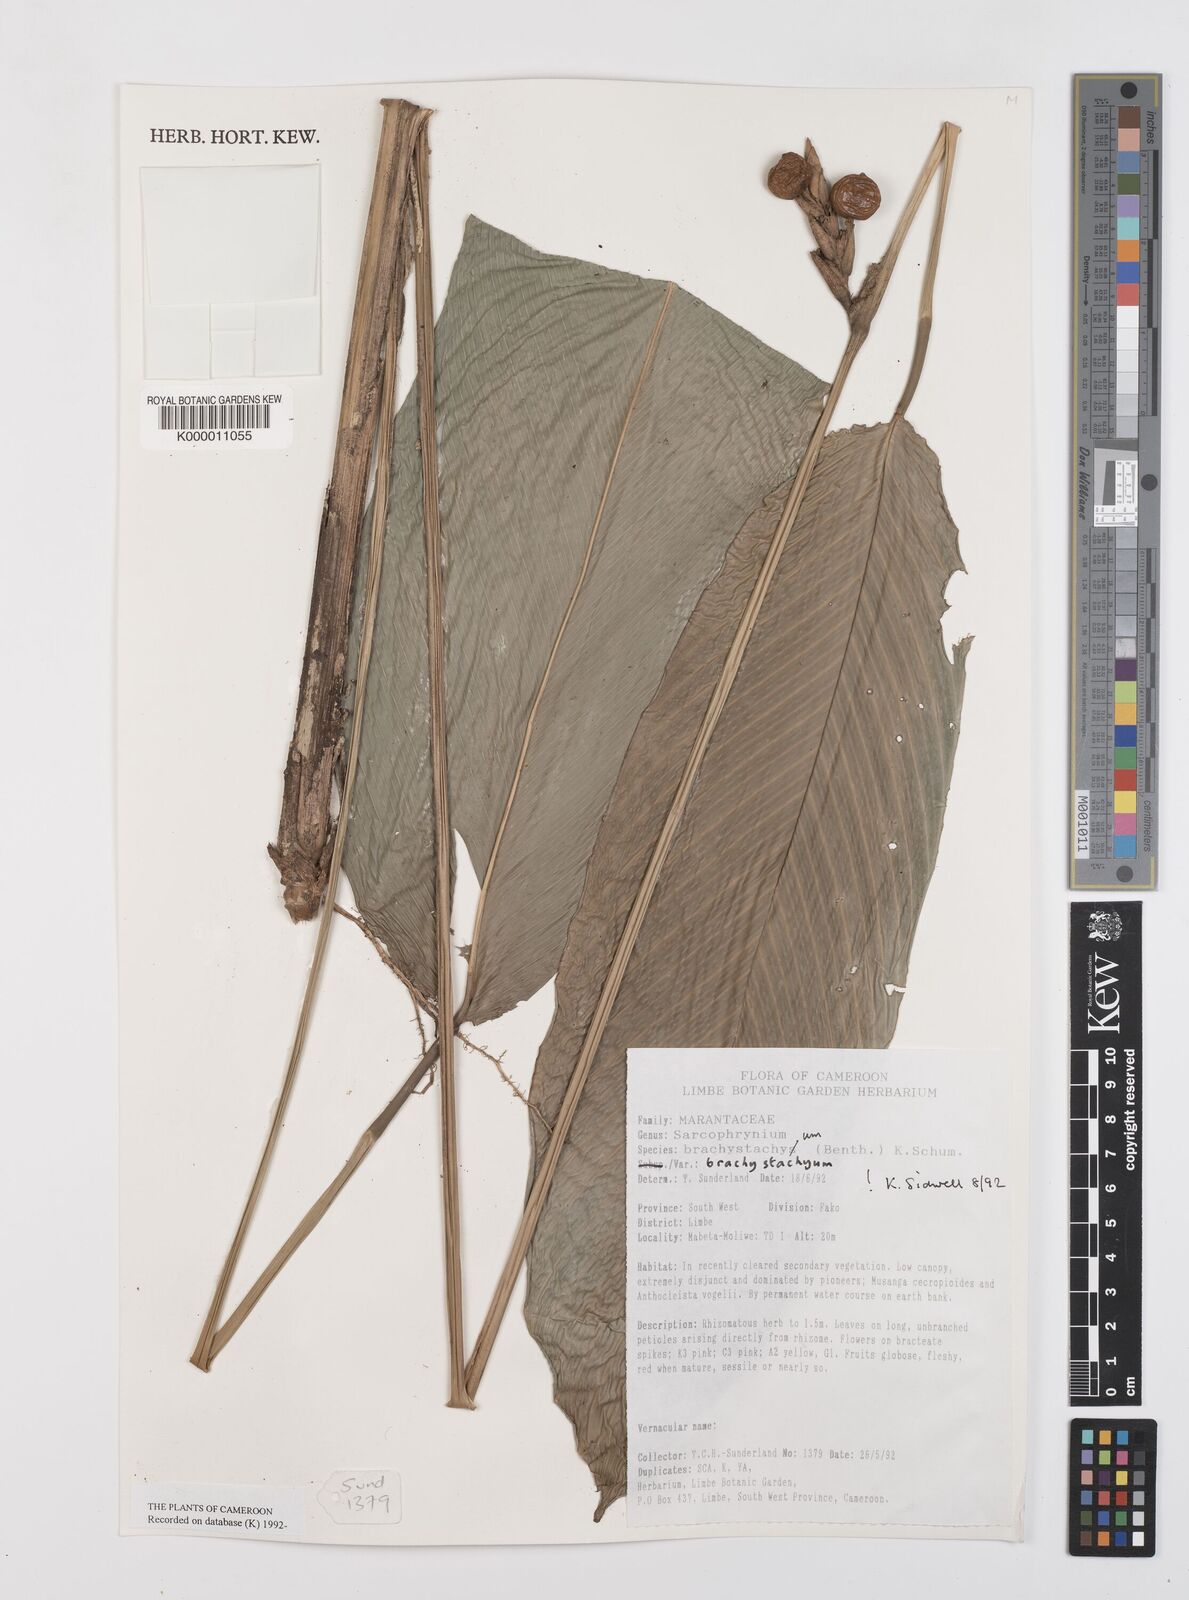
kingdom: Plantae
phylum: Tracheophyta
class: Liliopsida
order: Zingiberales
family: Marantaceae
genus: Sarcophrynium
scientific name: Sarcophrynium
